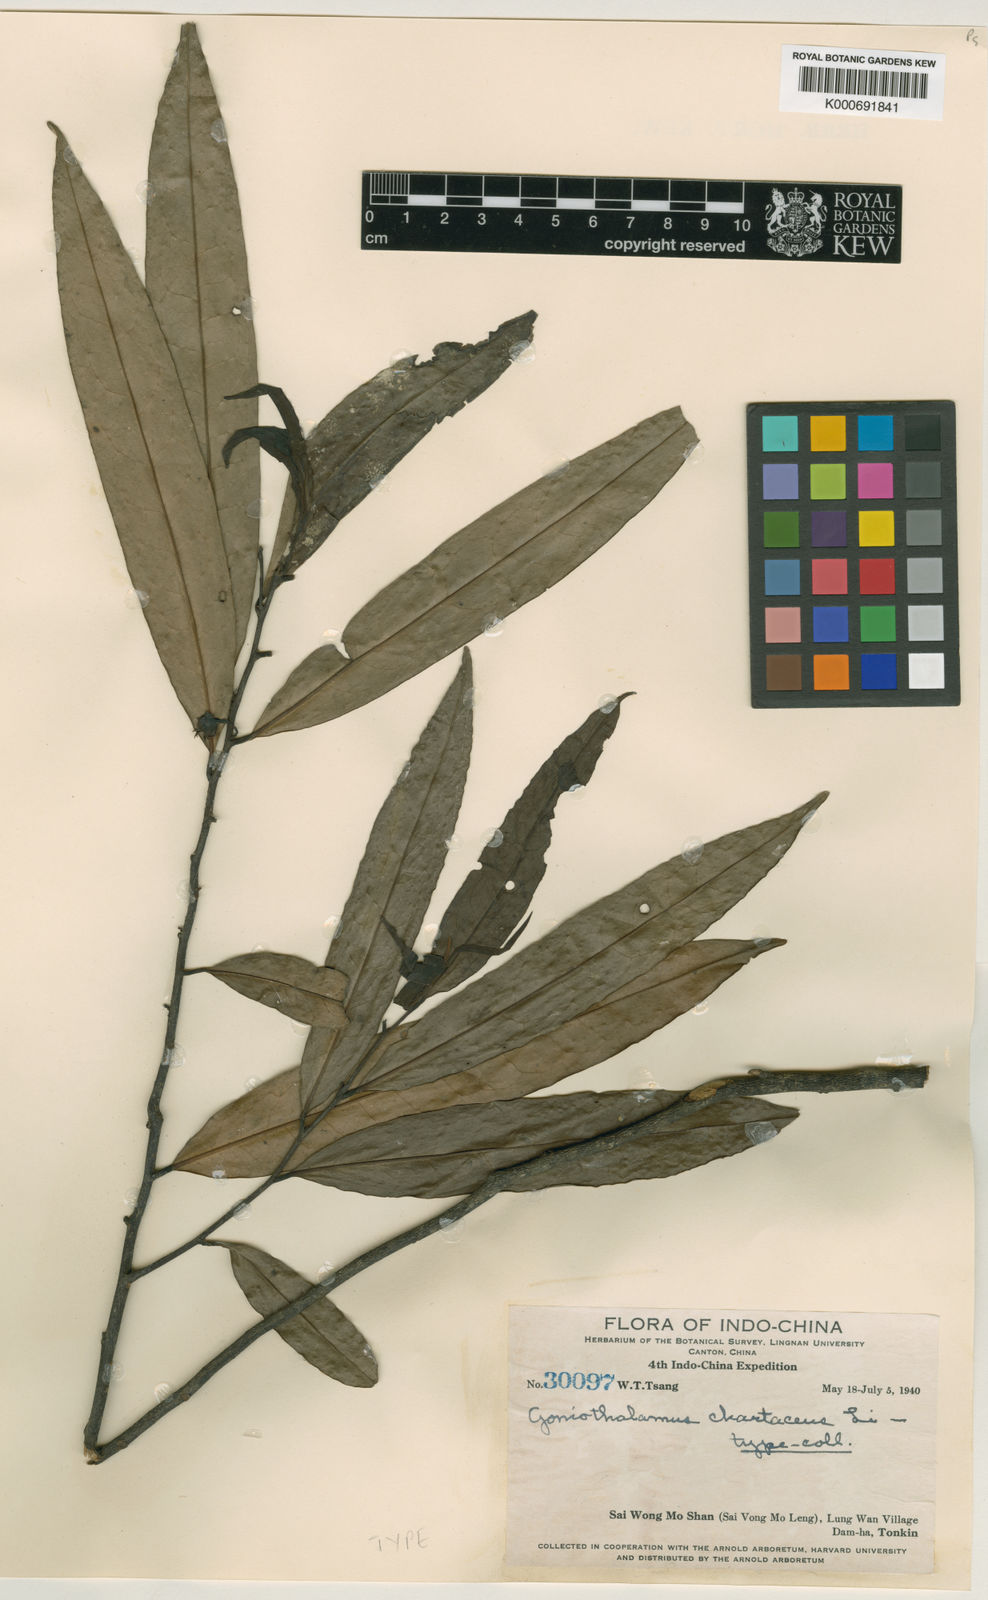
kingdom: Plantae
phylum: Tracheophyta
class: Magnoliopsida
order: Magnoliales
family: Annonaceae
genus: Goniothalamus
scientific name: Goniothalamus chartaceus
